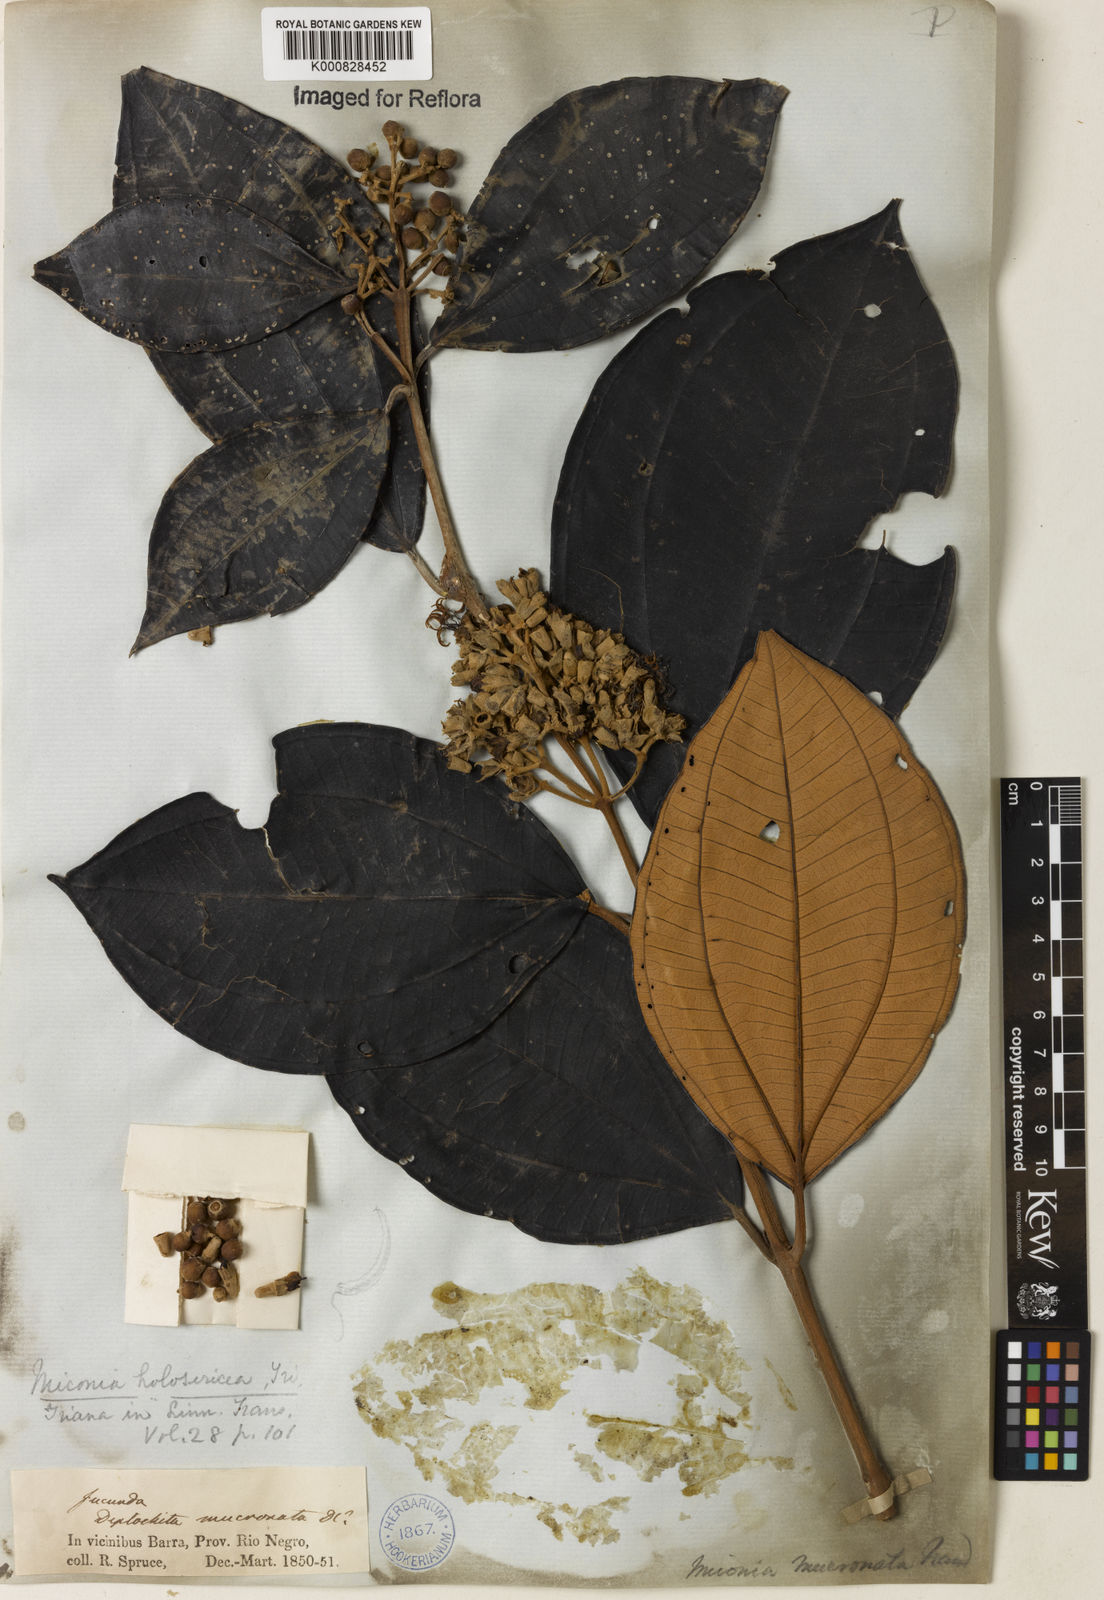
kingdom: Plantae
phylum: Tracheophyta
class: Magnoliopsida
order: Myrtales
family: Melastomataceae
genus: Miconia
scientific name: Miconia holosericea
